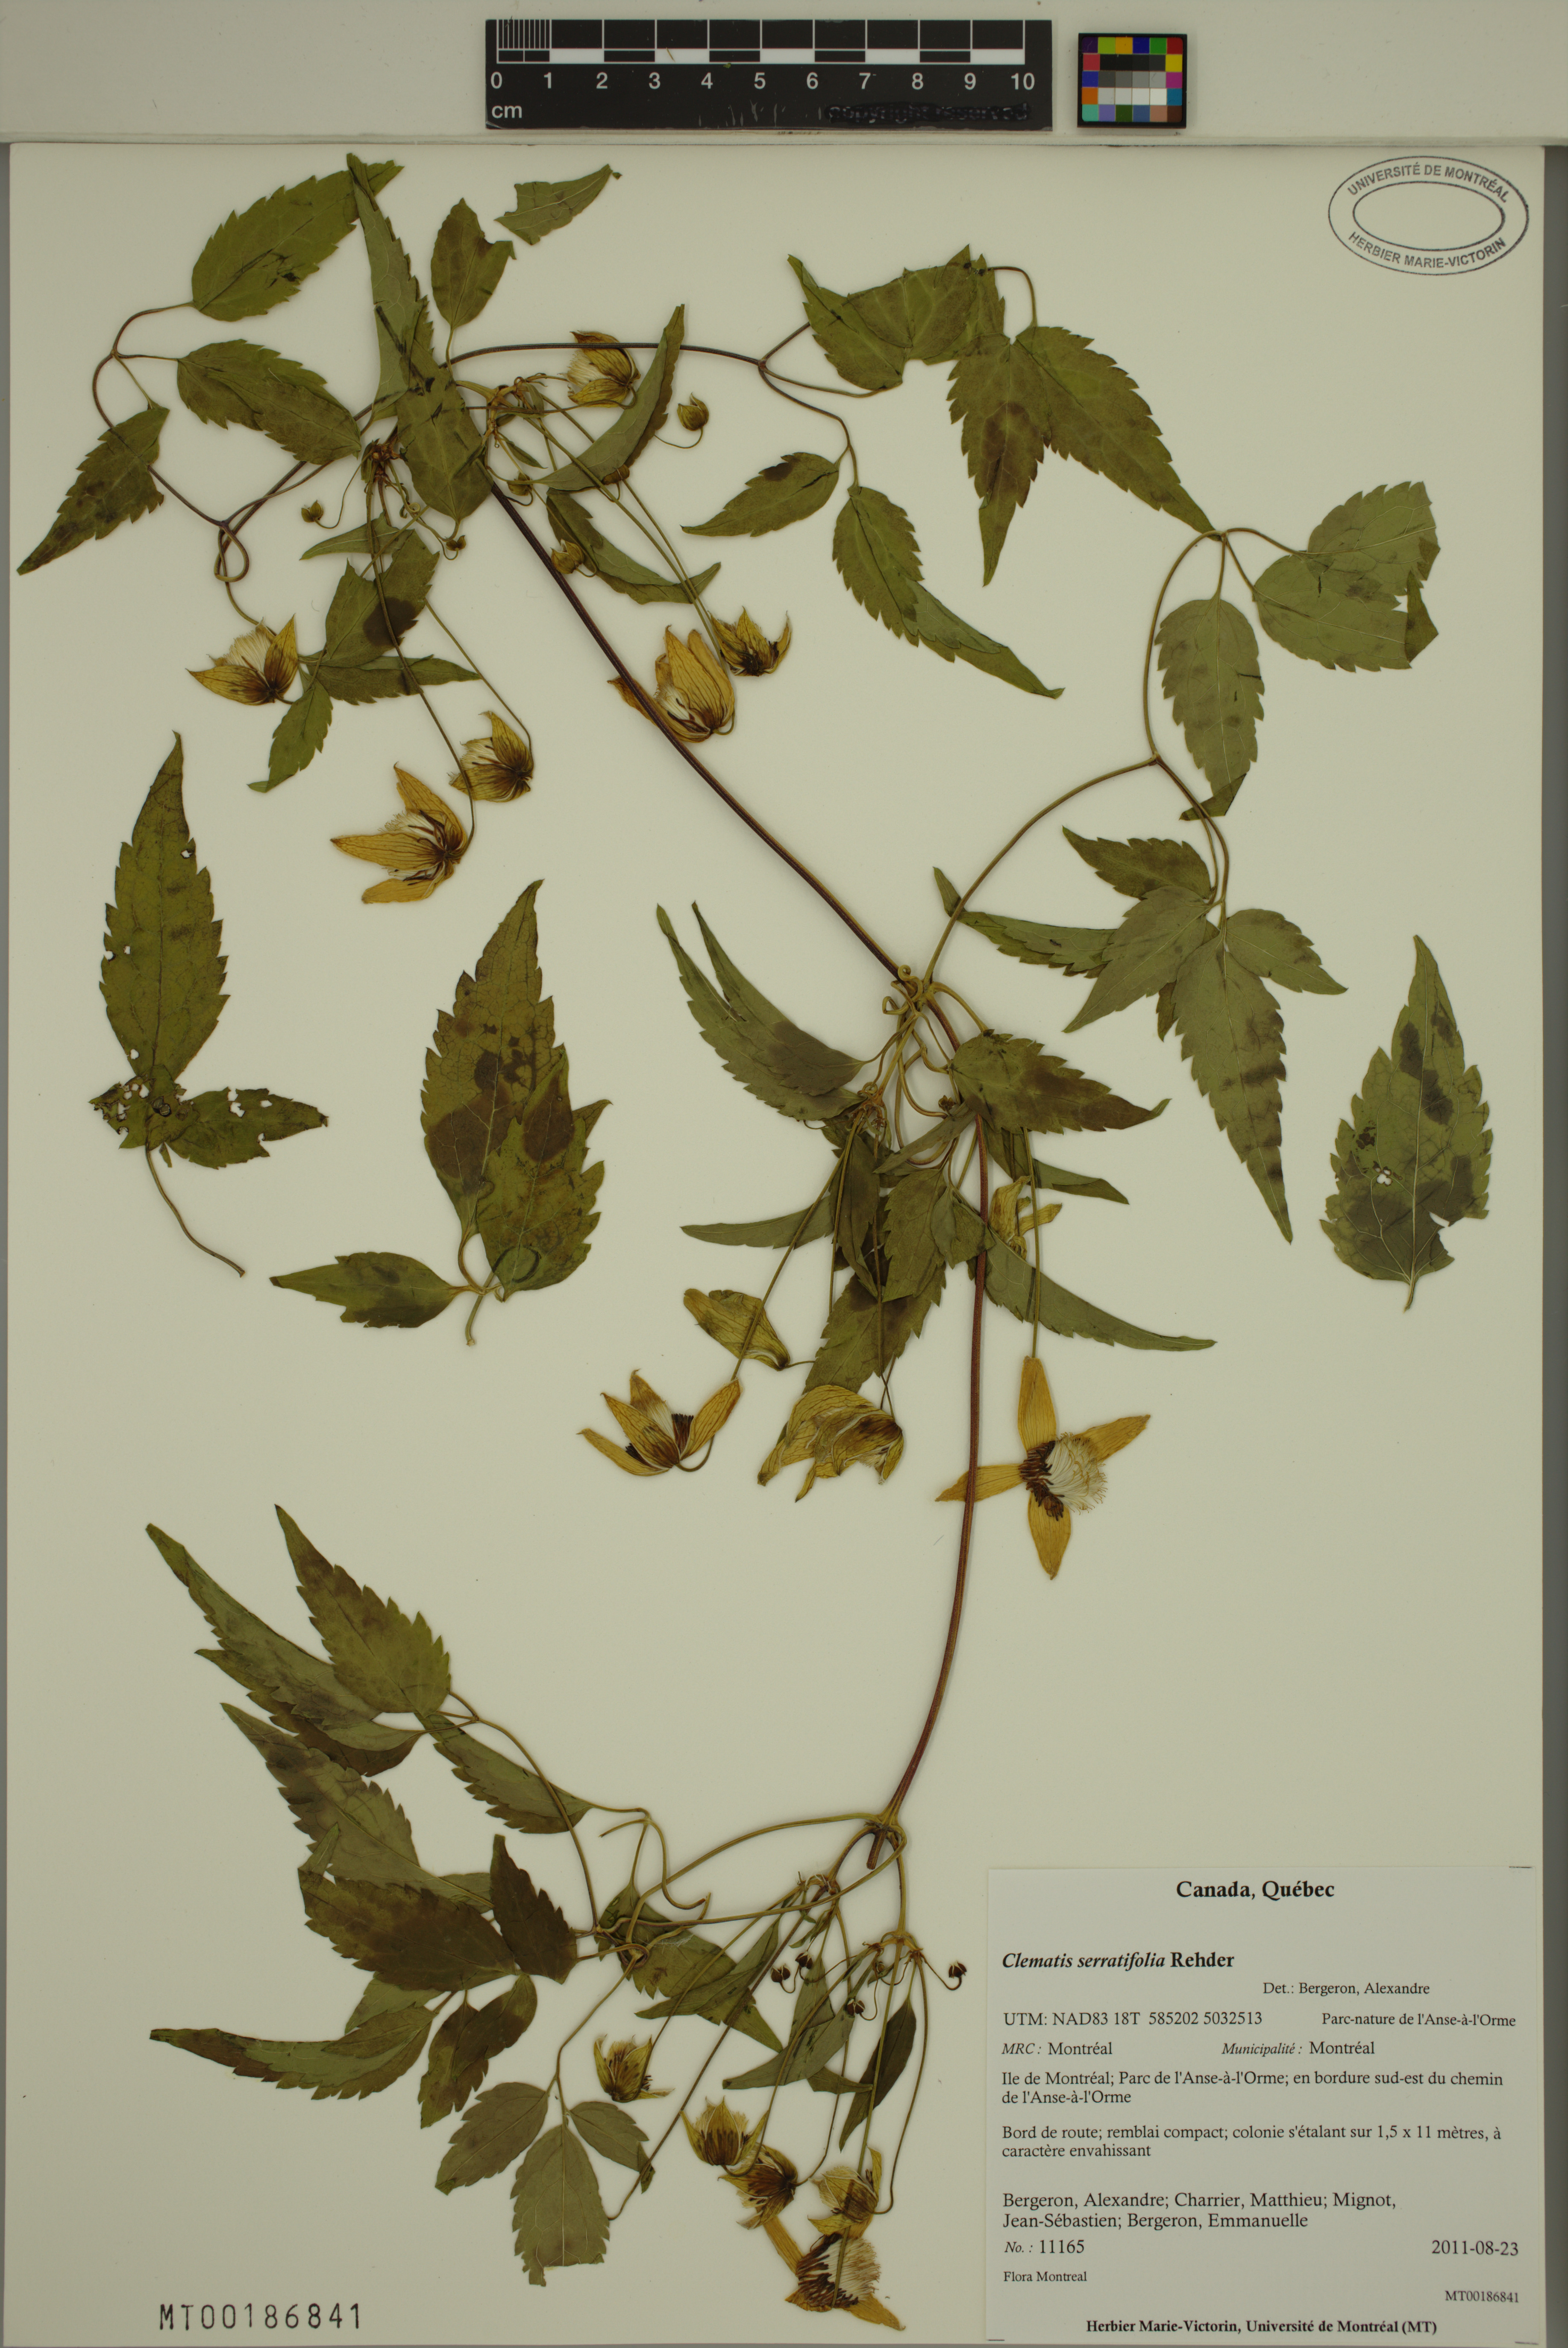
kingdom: Plantae
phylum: Tracheophyta
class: Magnoliopsida
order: Ranunculales
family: Ranunculaceae
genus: Clematis
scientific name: Clematis serratifolia
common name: Korean clematis
